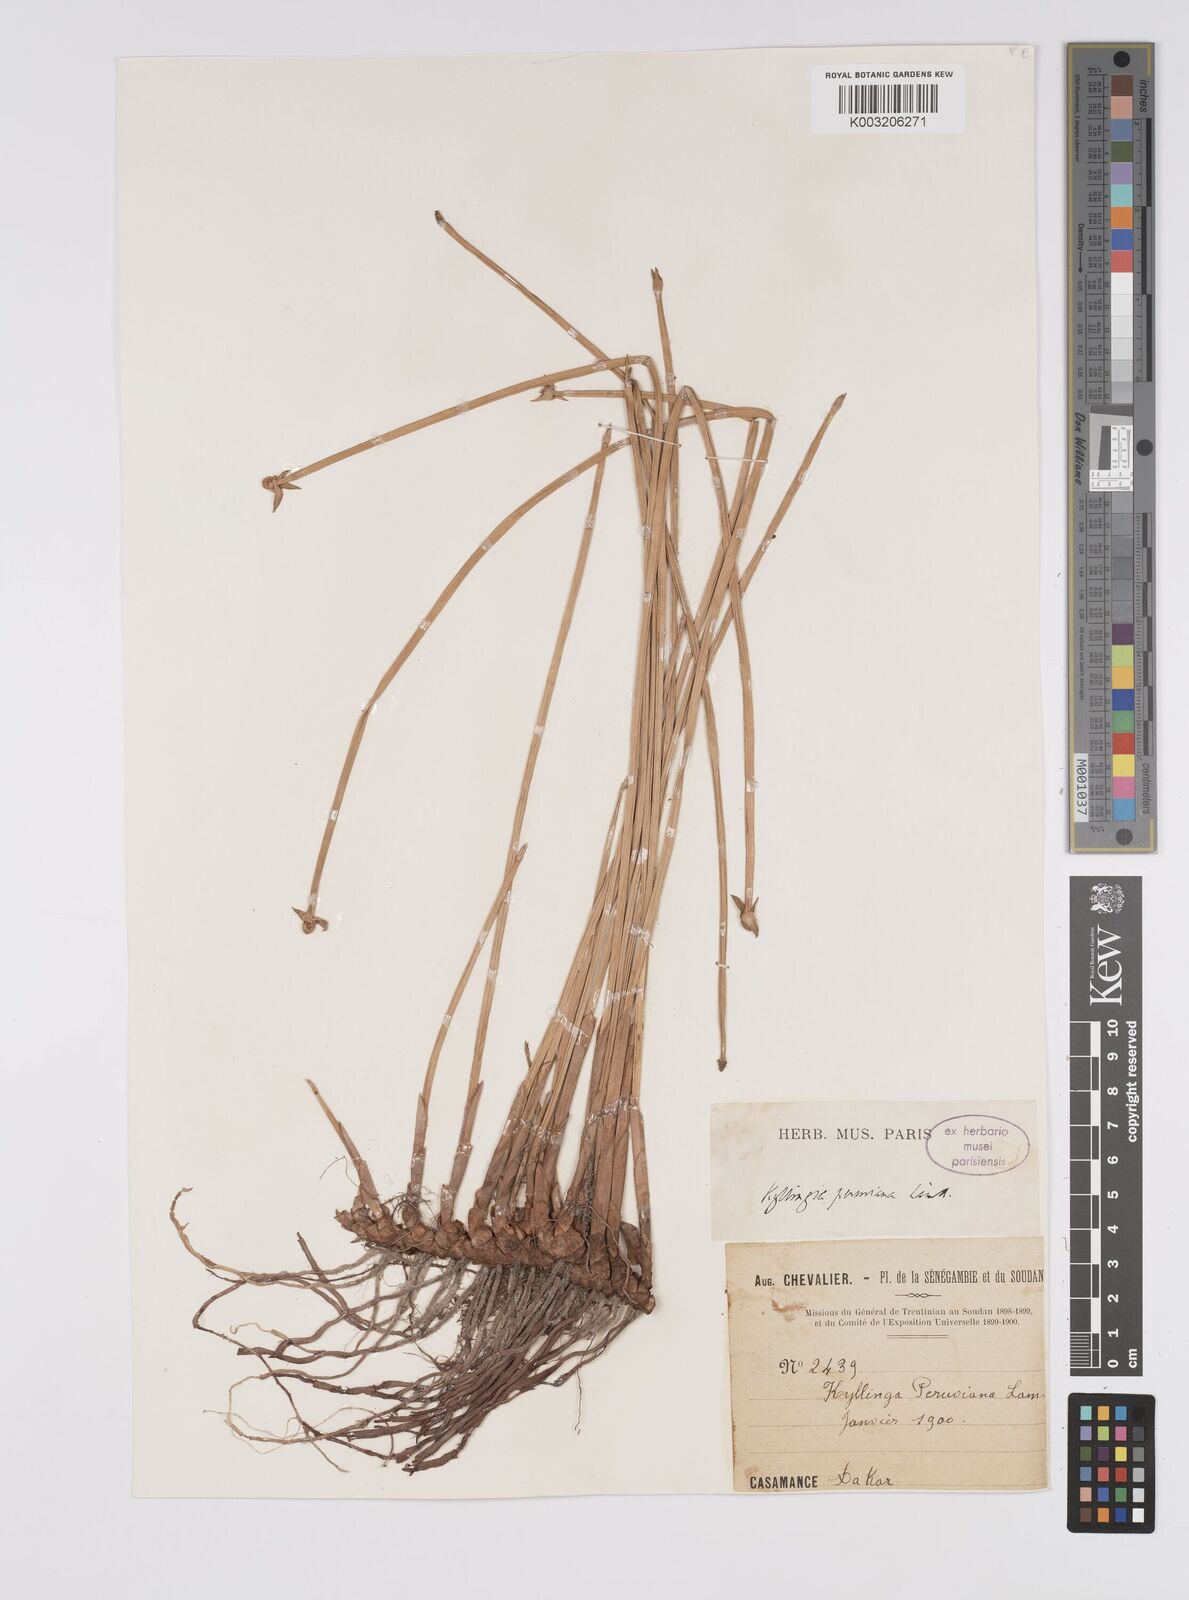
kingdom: Plantae
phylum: Tracheophyta
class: Liliopsida
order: Poales
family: Cyperaceae
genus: Cyperus
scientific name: Cyperus obtusatus
